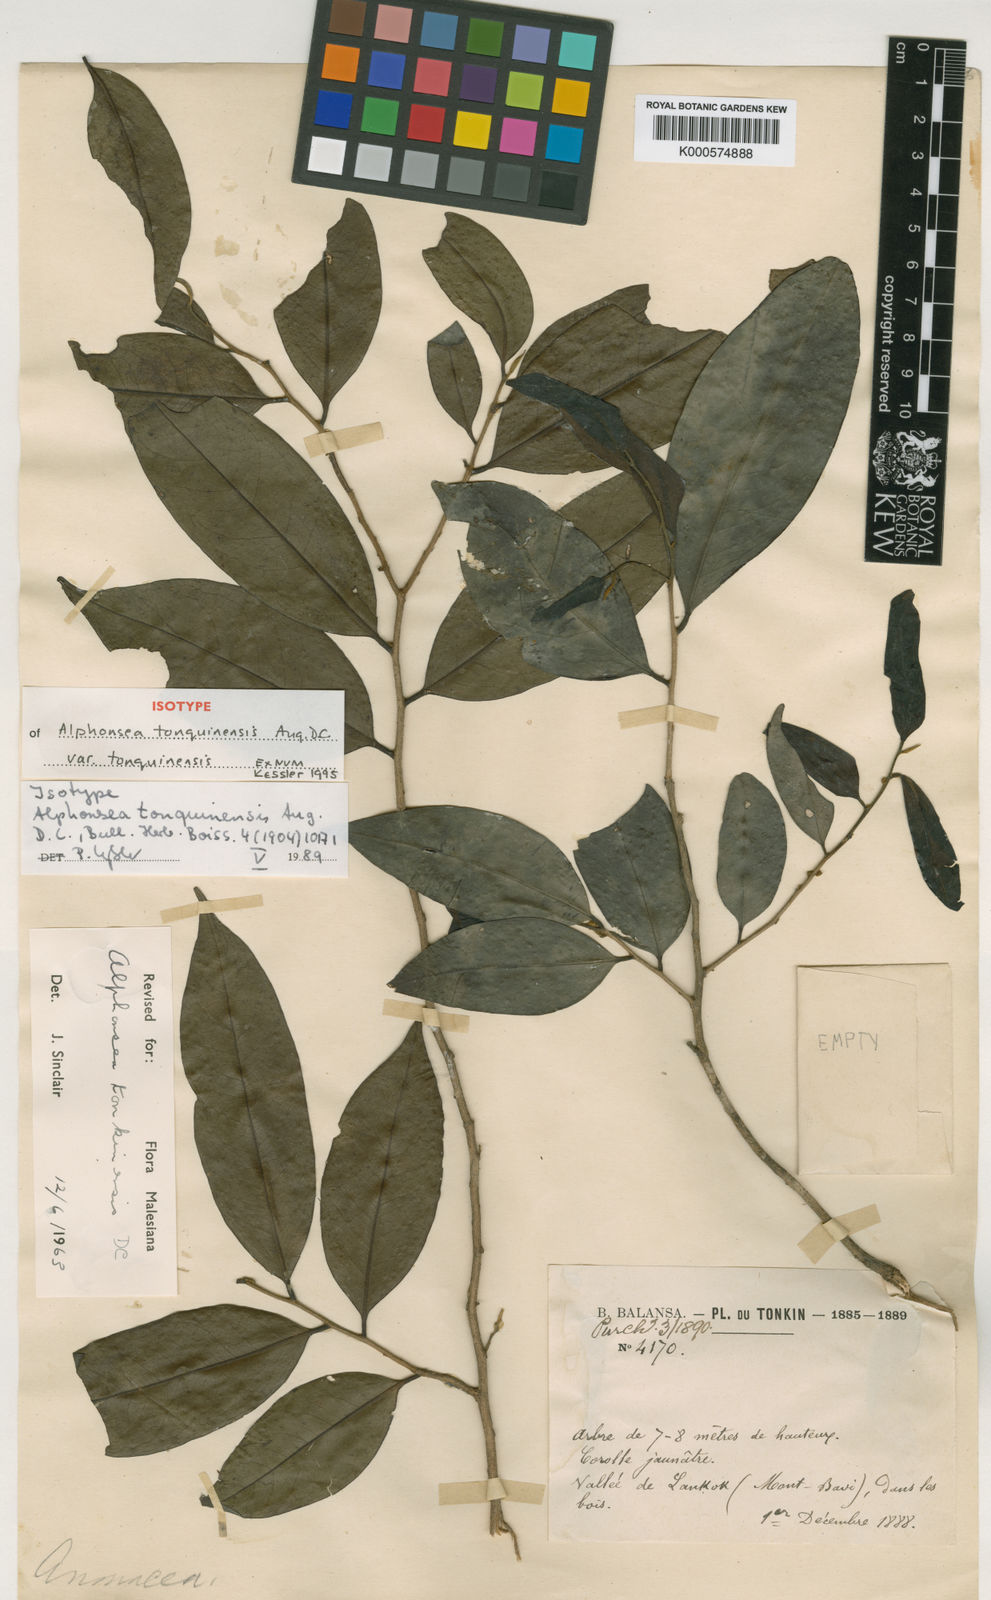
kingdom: Plantae
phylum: Tracheophyta
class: Magnoliopsida
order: Magnoliales
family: Annonaceae
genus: Alphonsea
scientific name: Alphonsea tonquinensis
